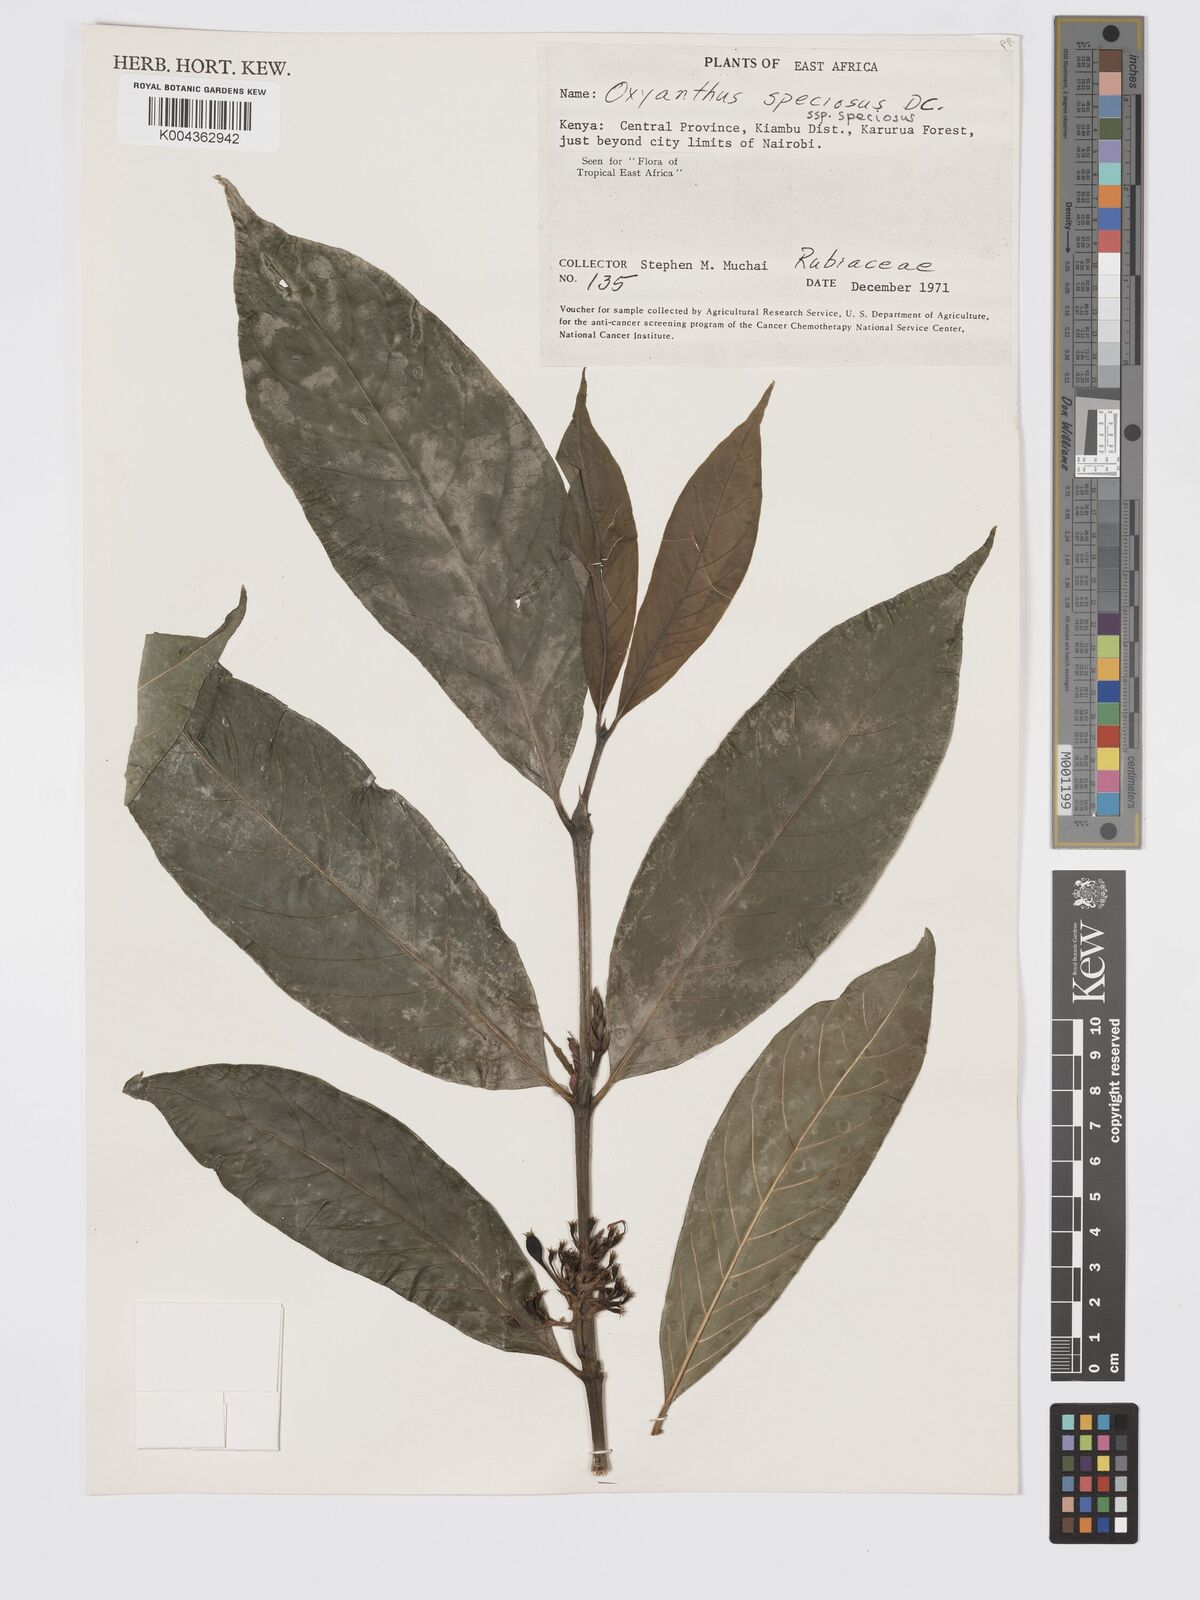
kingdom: Plantae
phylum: Tracheophyta
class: Magnoliopsida
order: Gentianales
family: Rubiaceae
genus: Oxyanthus
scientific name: Oxyanthus speciosus
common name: Whipstick loquat
